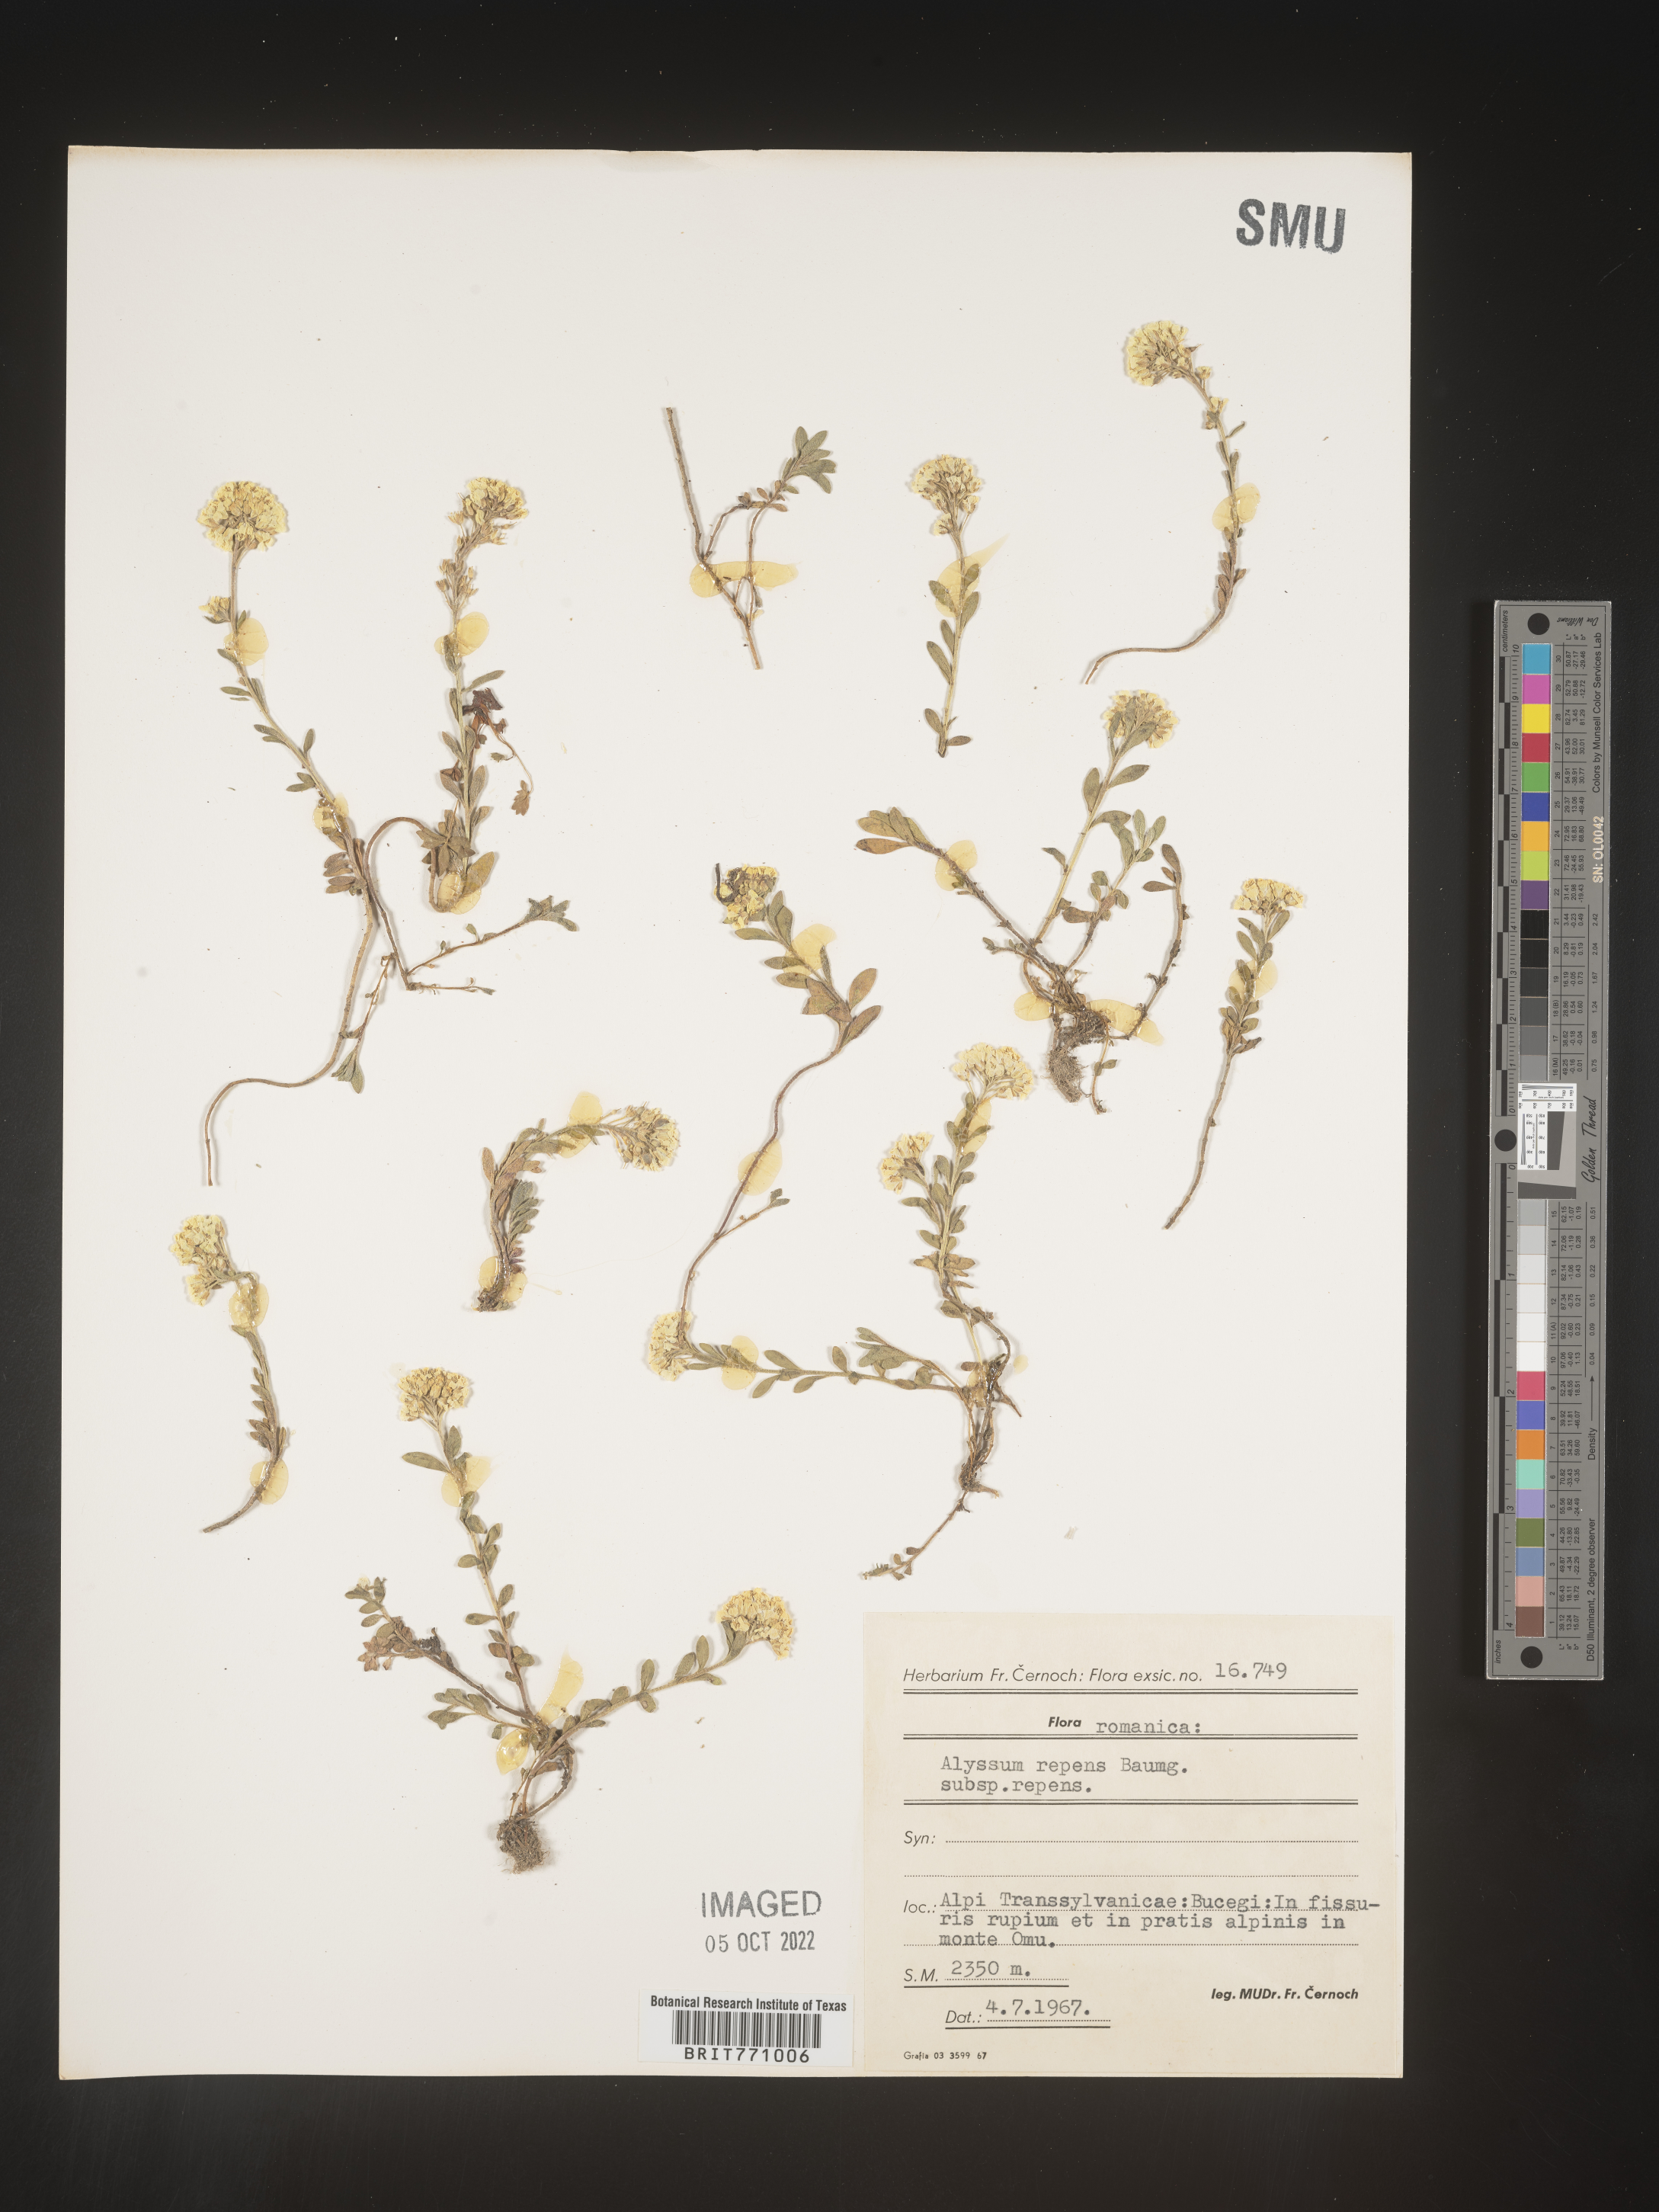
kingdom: Plantae
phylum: Tracheophyta
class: Magnoliopsida
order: Brassicales
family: Brassicaceae
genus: Alyssum
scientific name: Alyssum
